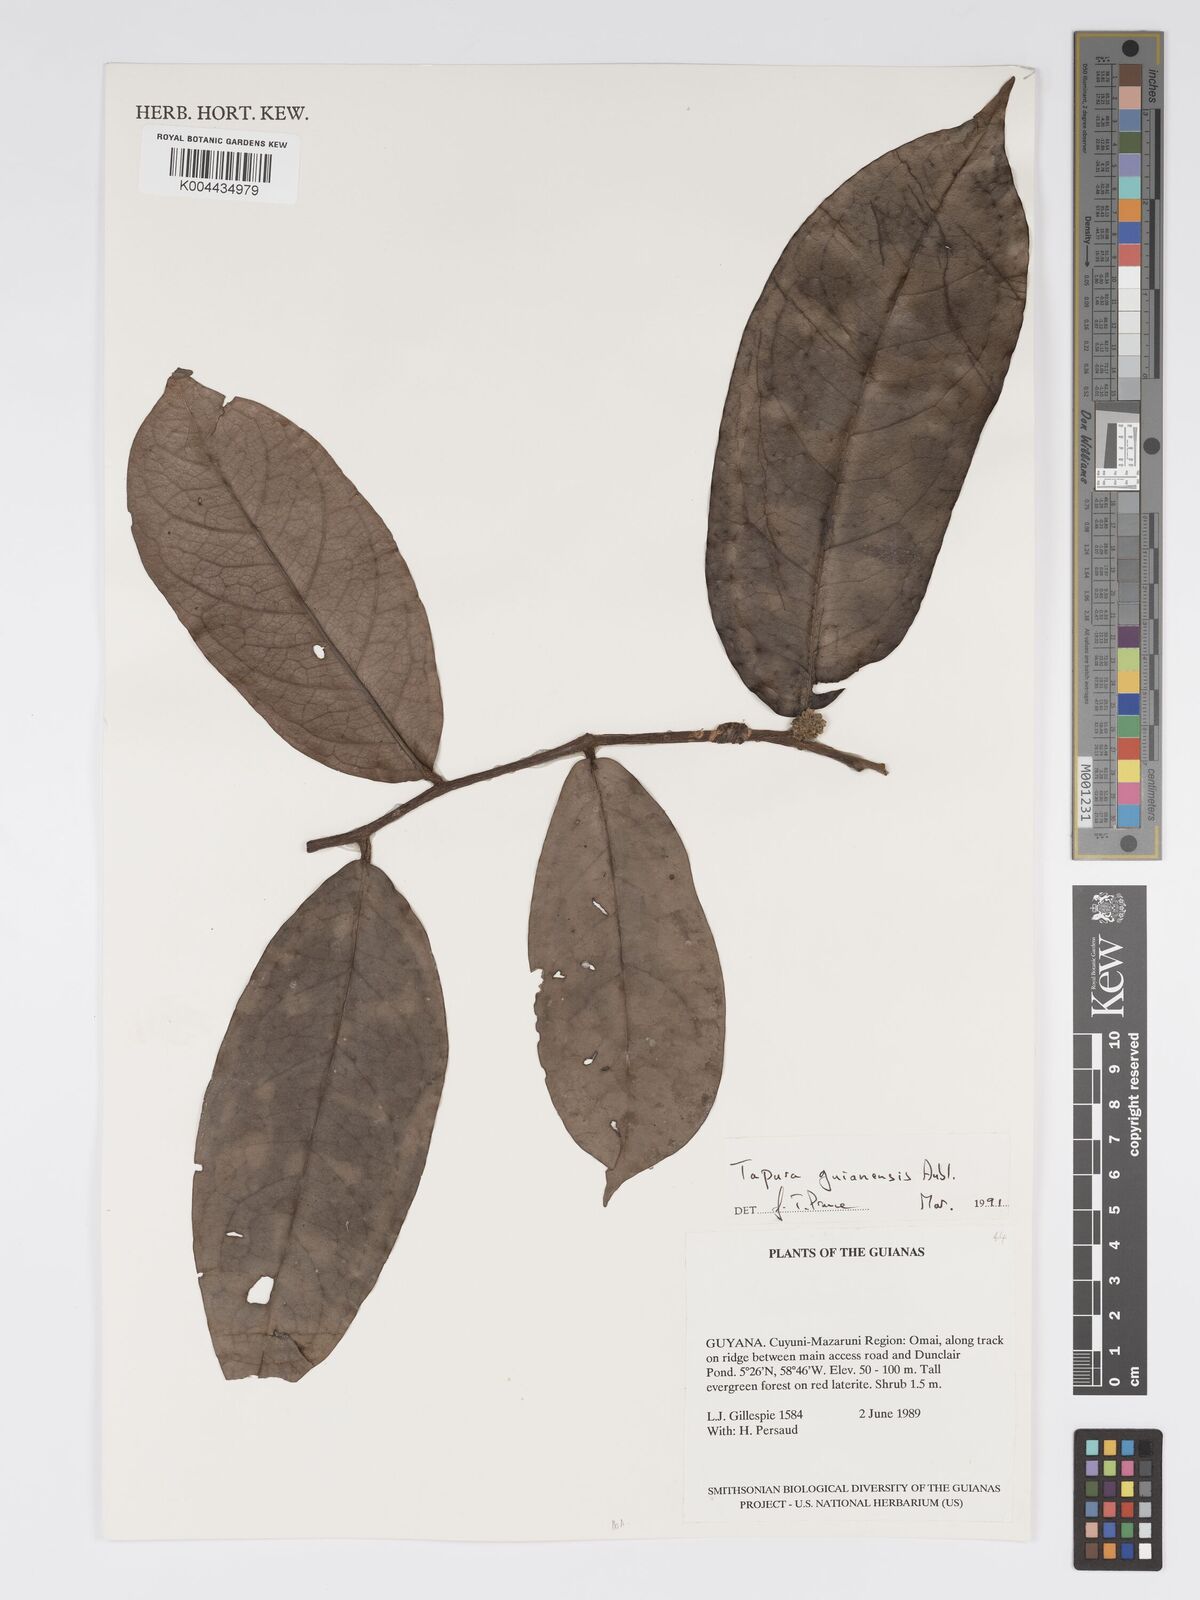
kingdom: Plantae
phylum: Tracheophyta
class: Magnoliopsida
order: Malpighiales
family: Dichapetalaceae
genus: Tapura
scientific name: Tapura guianensis
